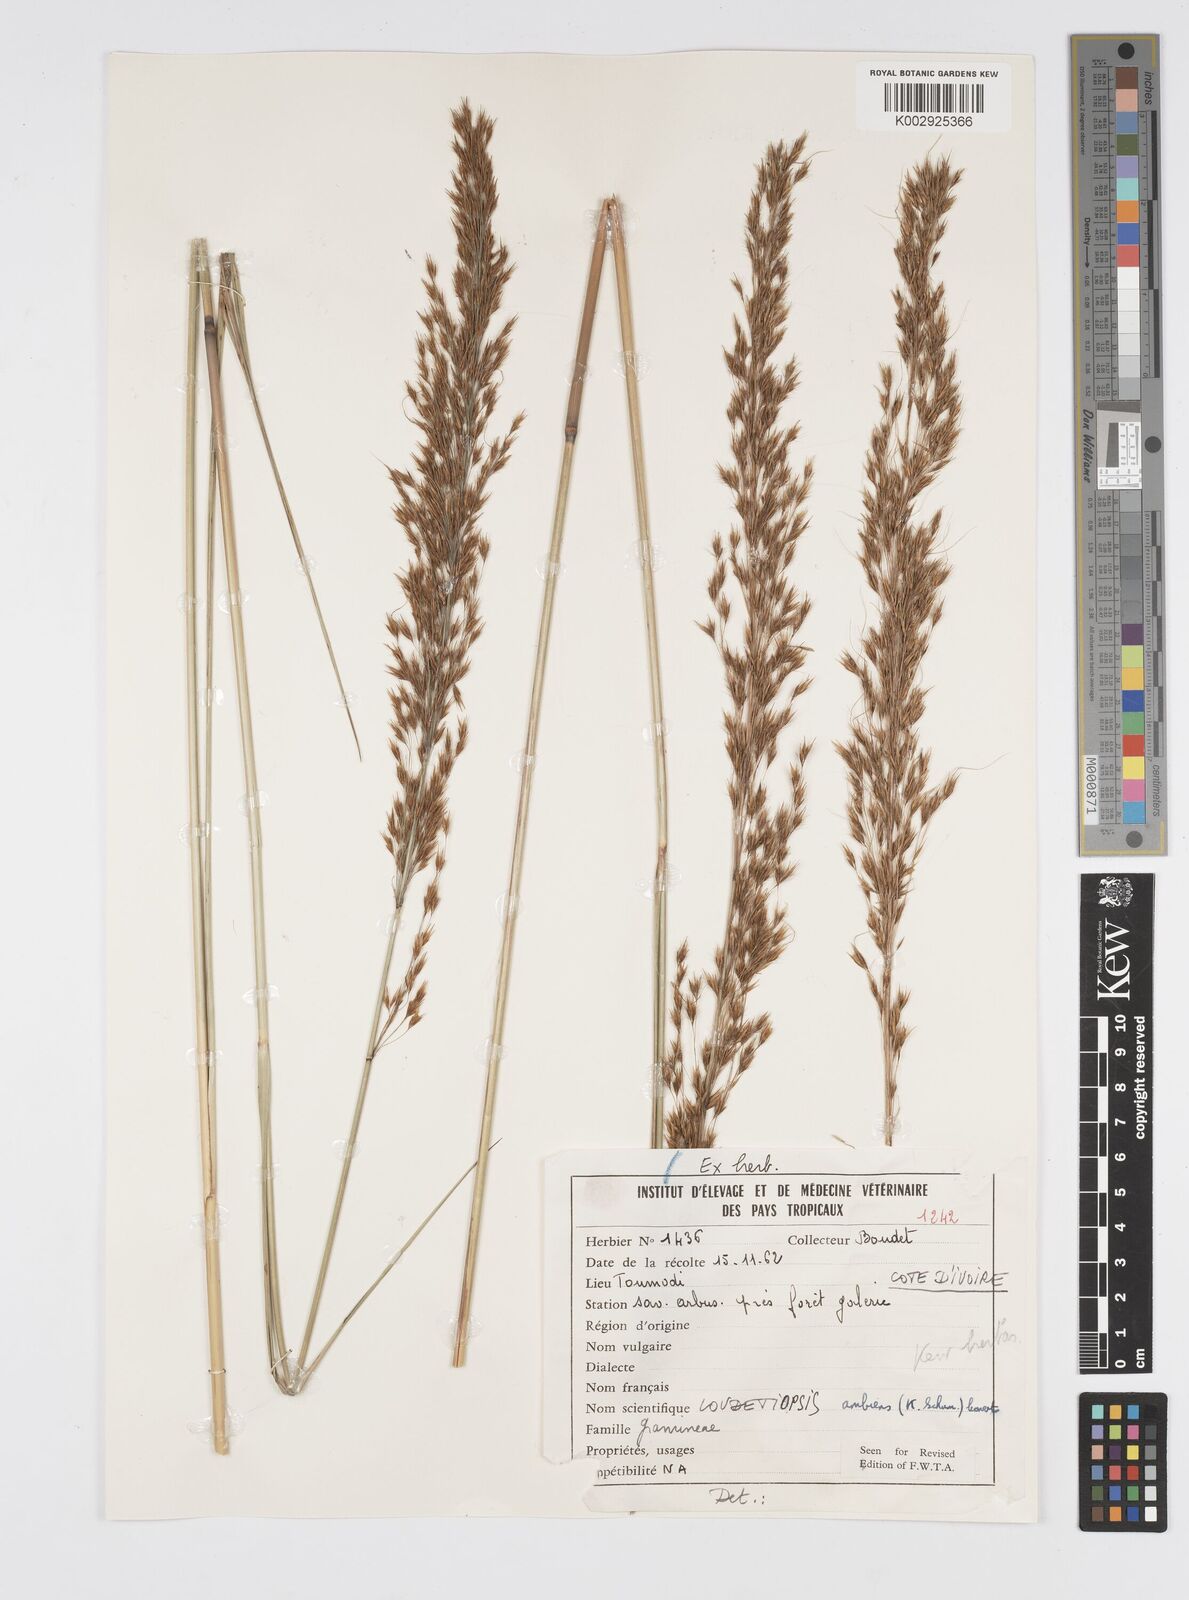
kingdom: Plantae
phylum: Tracheophyta
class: Liliopsida
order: Poales
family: Poaceae
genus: Loudetiopsis
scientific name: Loudetiopsis ambiens
